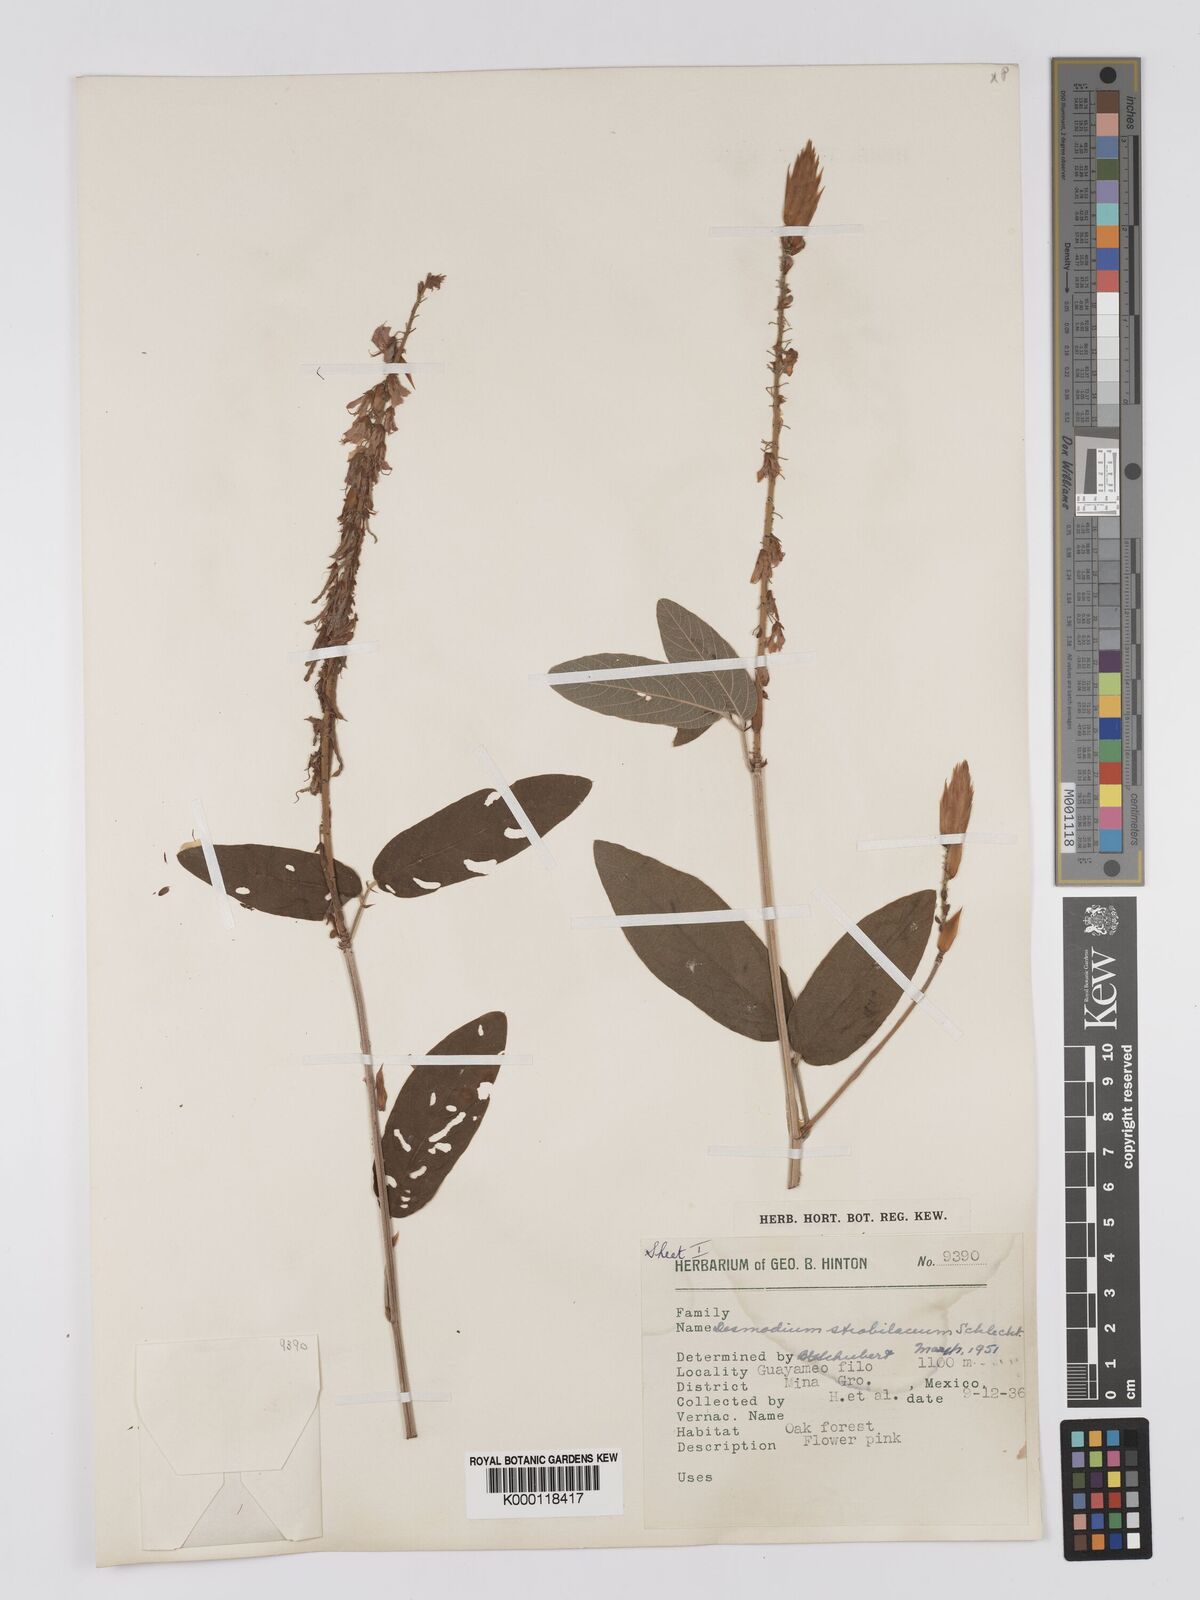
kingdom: Plantae
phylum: Tracheophyta
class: Magnoliopsida
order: Fabales
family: Fabaceae
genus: Desmodium
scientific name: Desmodium sericophyllum
